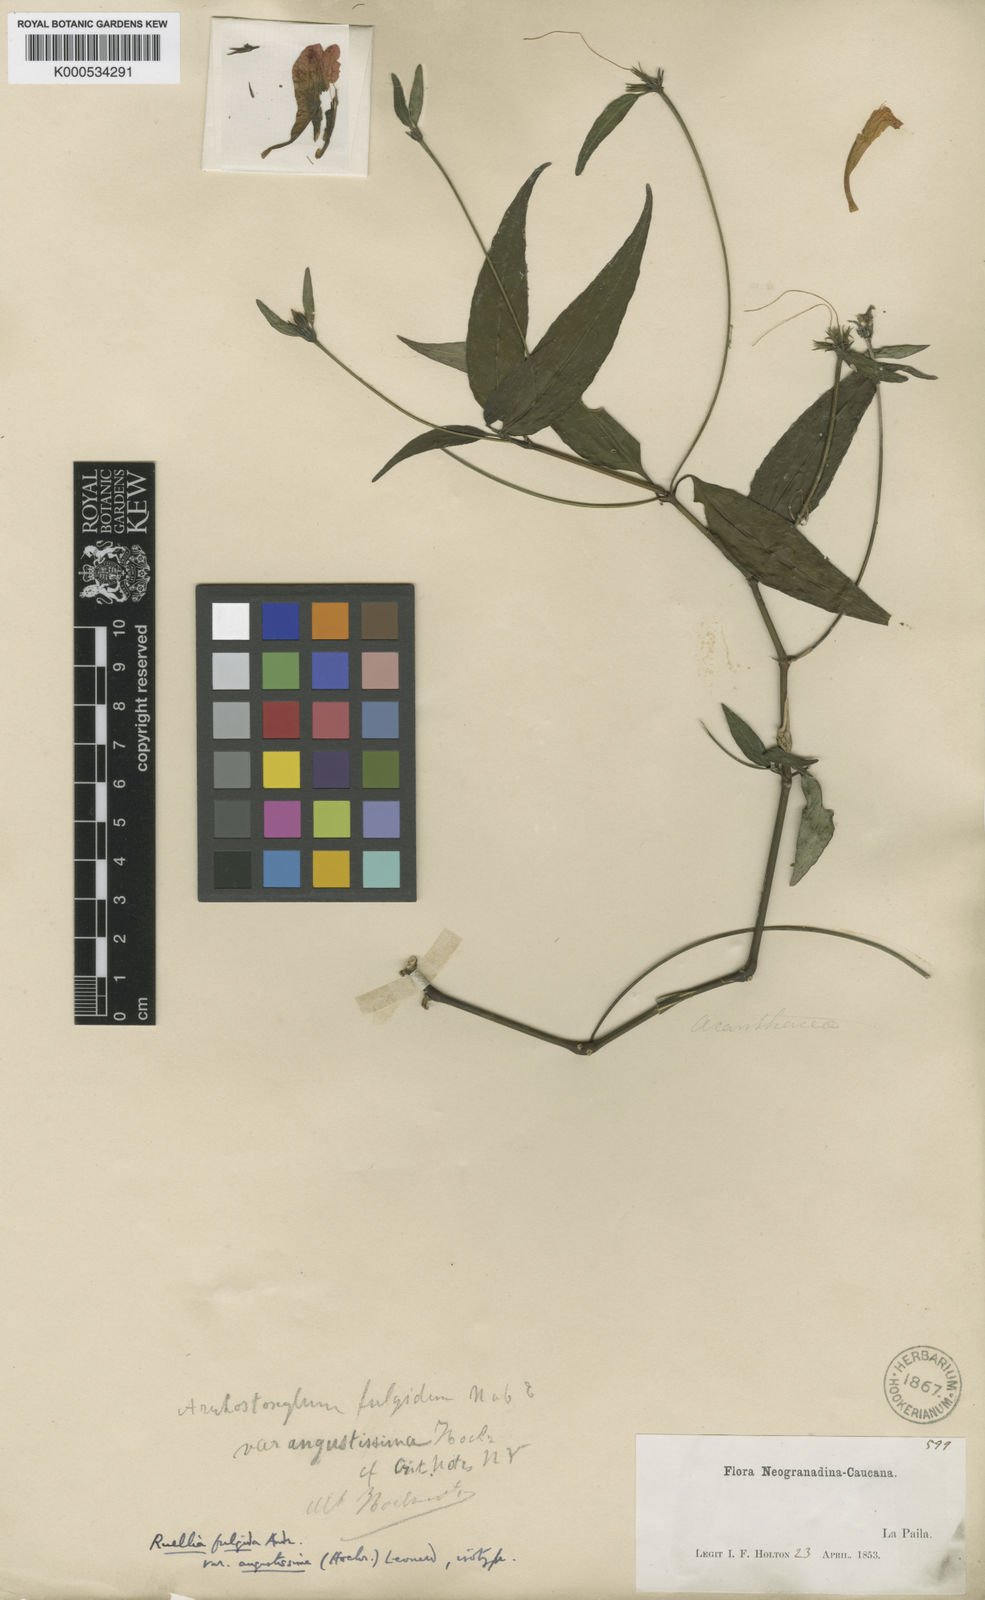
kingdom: Plantae
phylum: Tracheophyta
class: Magnoliopsida
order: Lamiales
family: Acanthaceae
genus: Ruellia
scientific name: Ruellia fulgida
